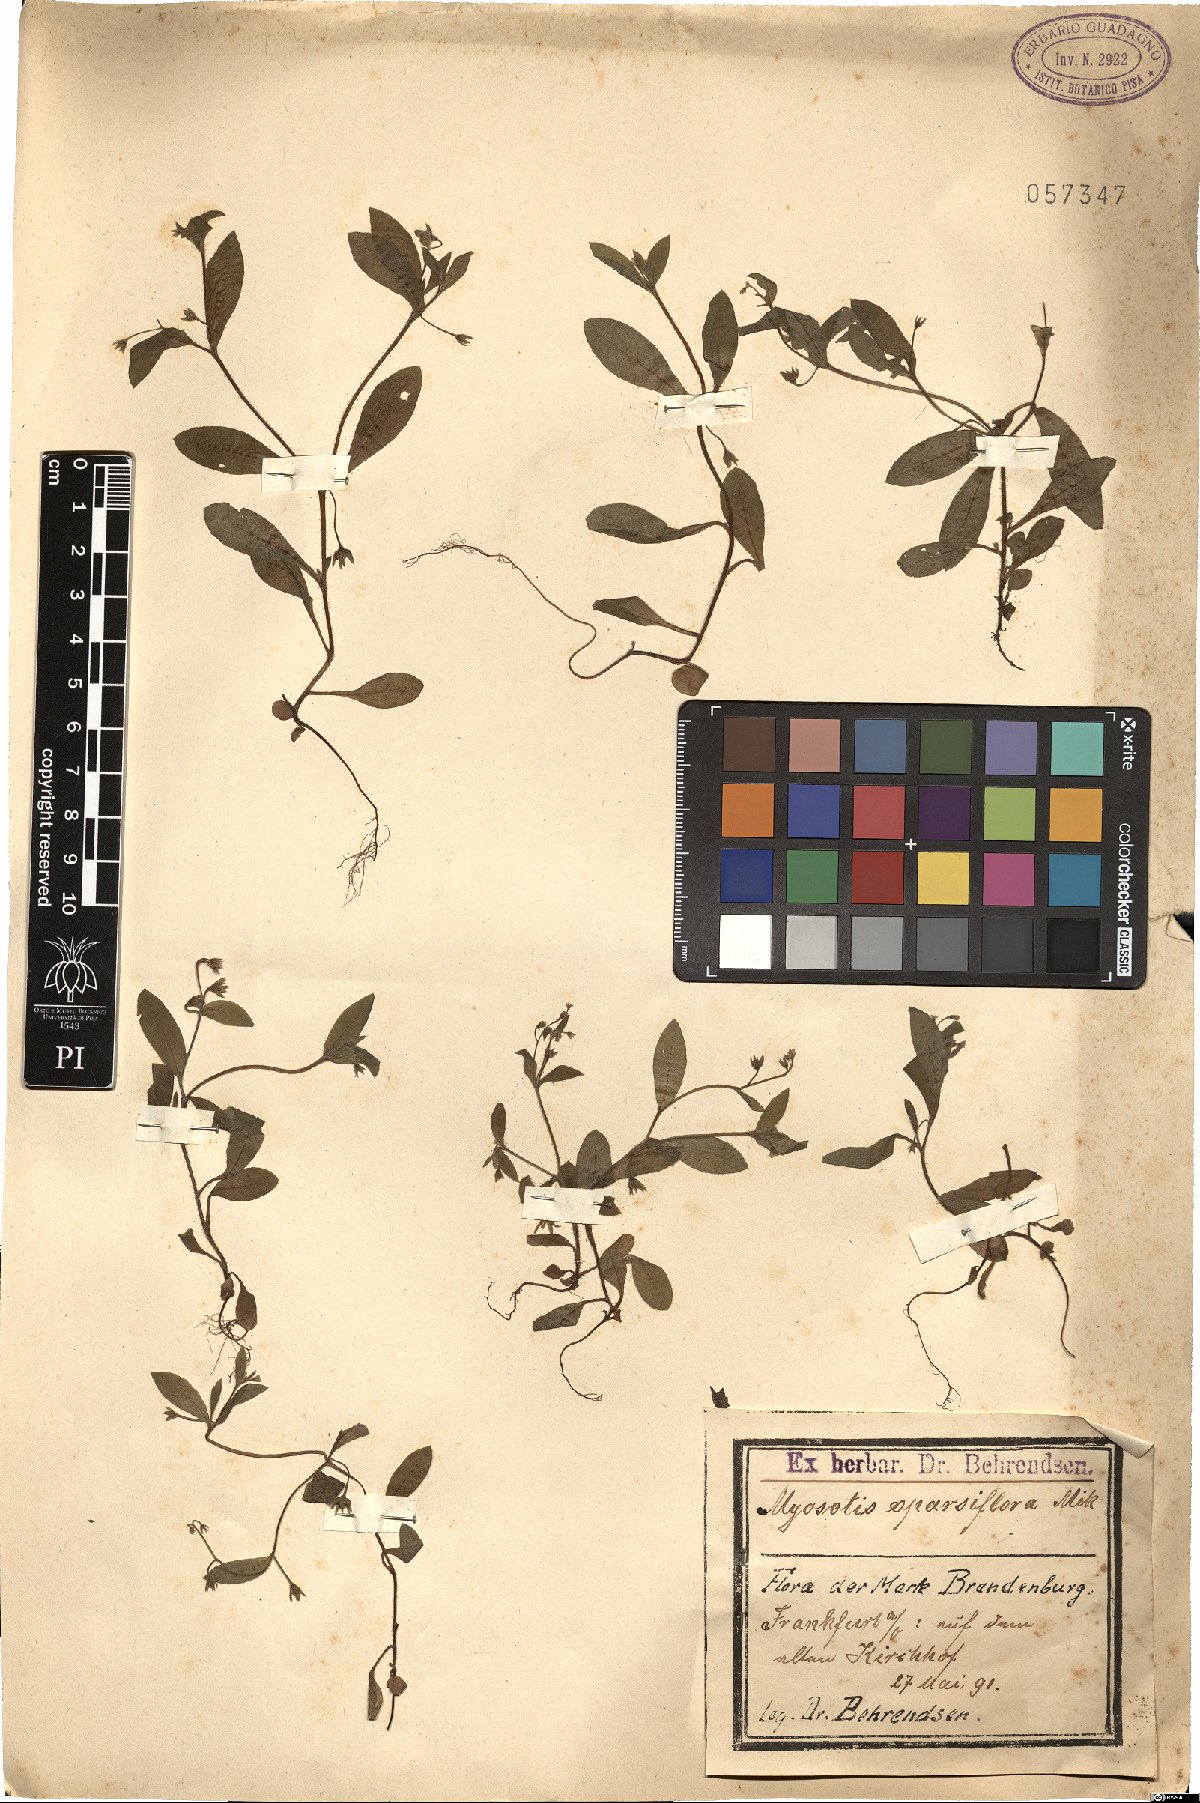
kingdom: Plantae
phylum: Tracheophyta
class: Magnoliopsida
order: Boraginales
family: Boraginaceae
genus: Myosotis
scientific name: Myosotis sparsiflora
